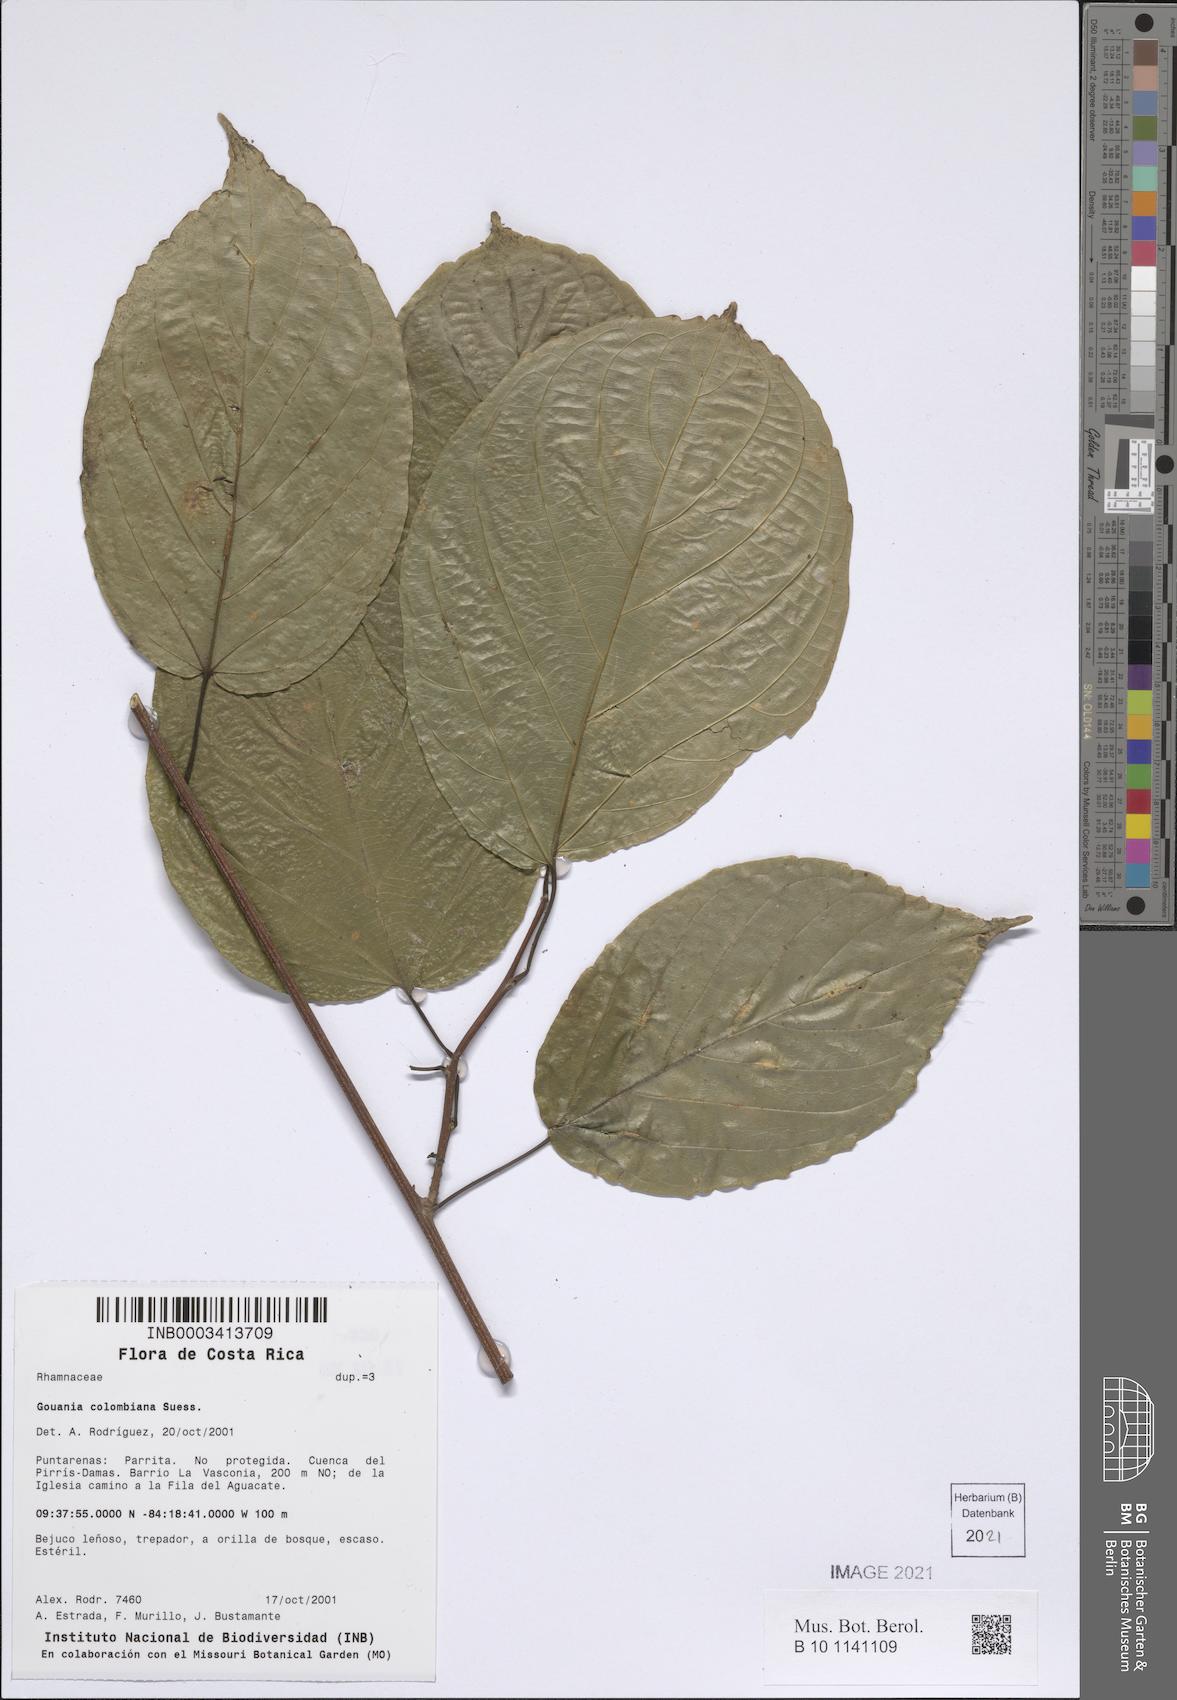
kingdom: Plantae
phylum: Tracheophyta
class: Magnoliopsida
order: Rosales
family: Rhamnaceae
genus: Gouania
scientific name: Gouania colombiana
